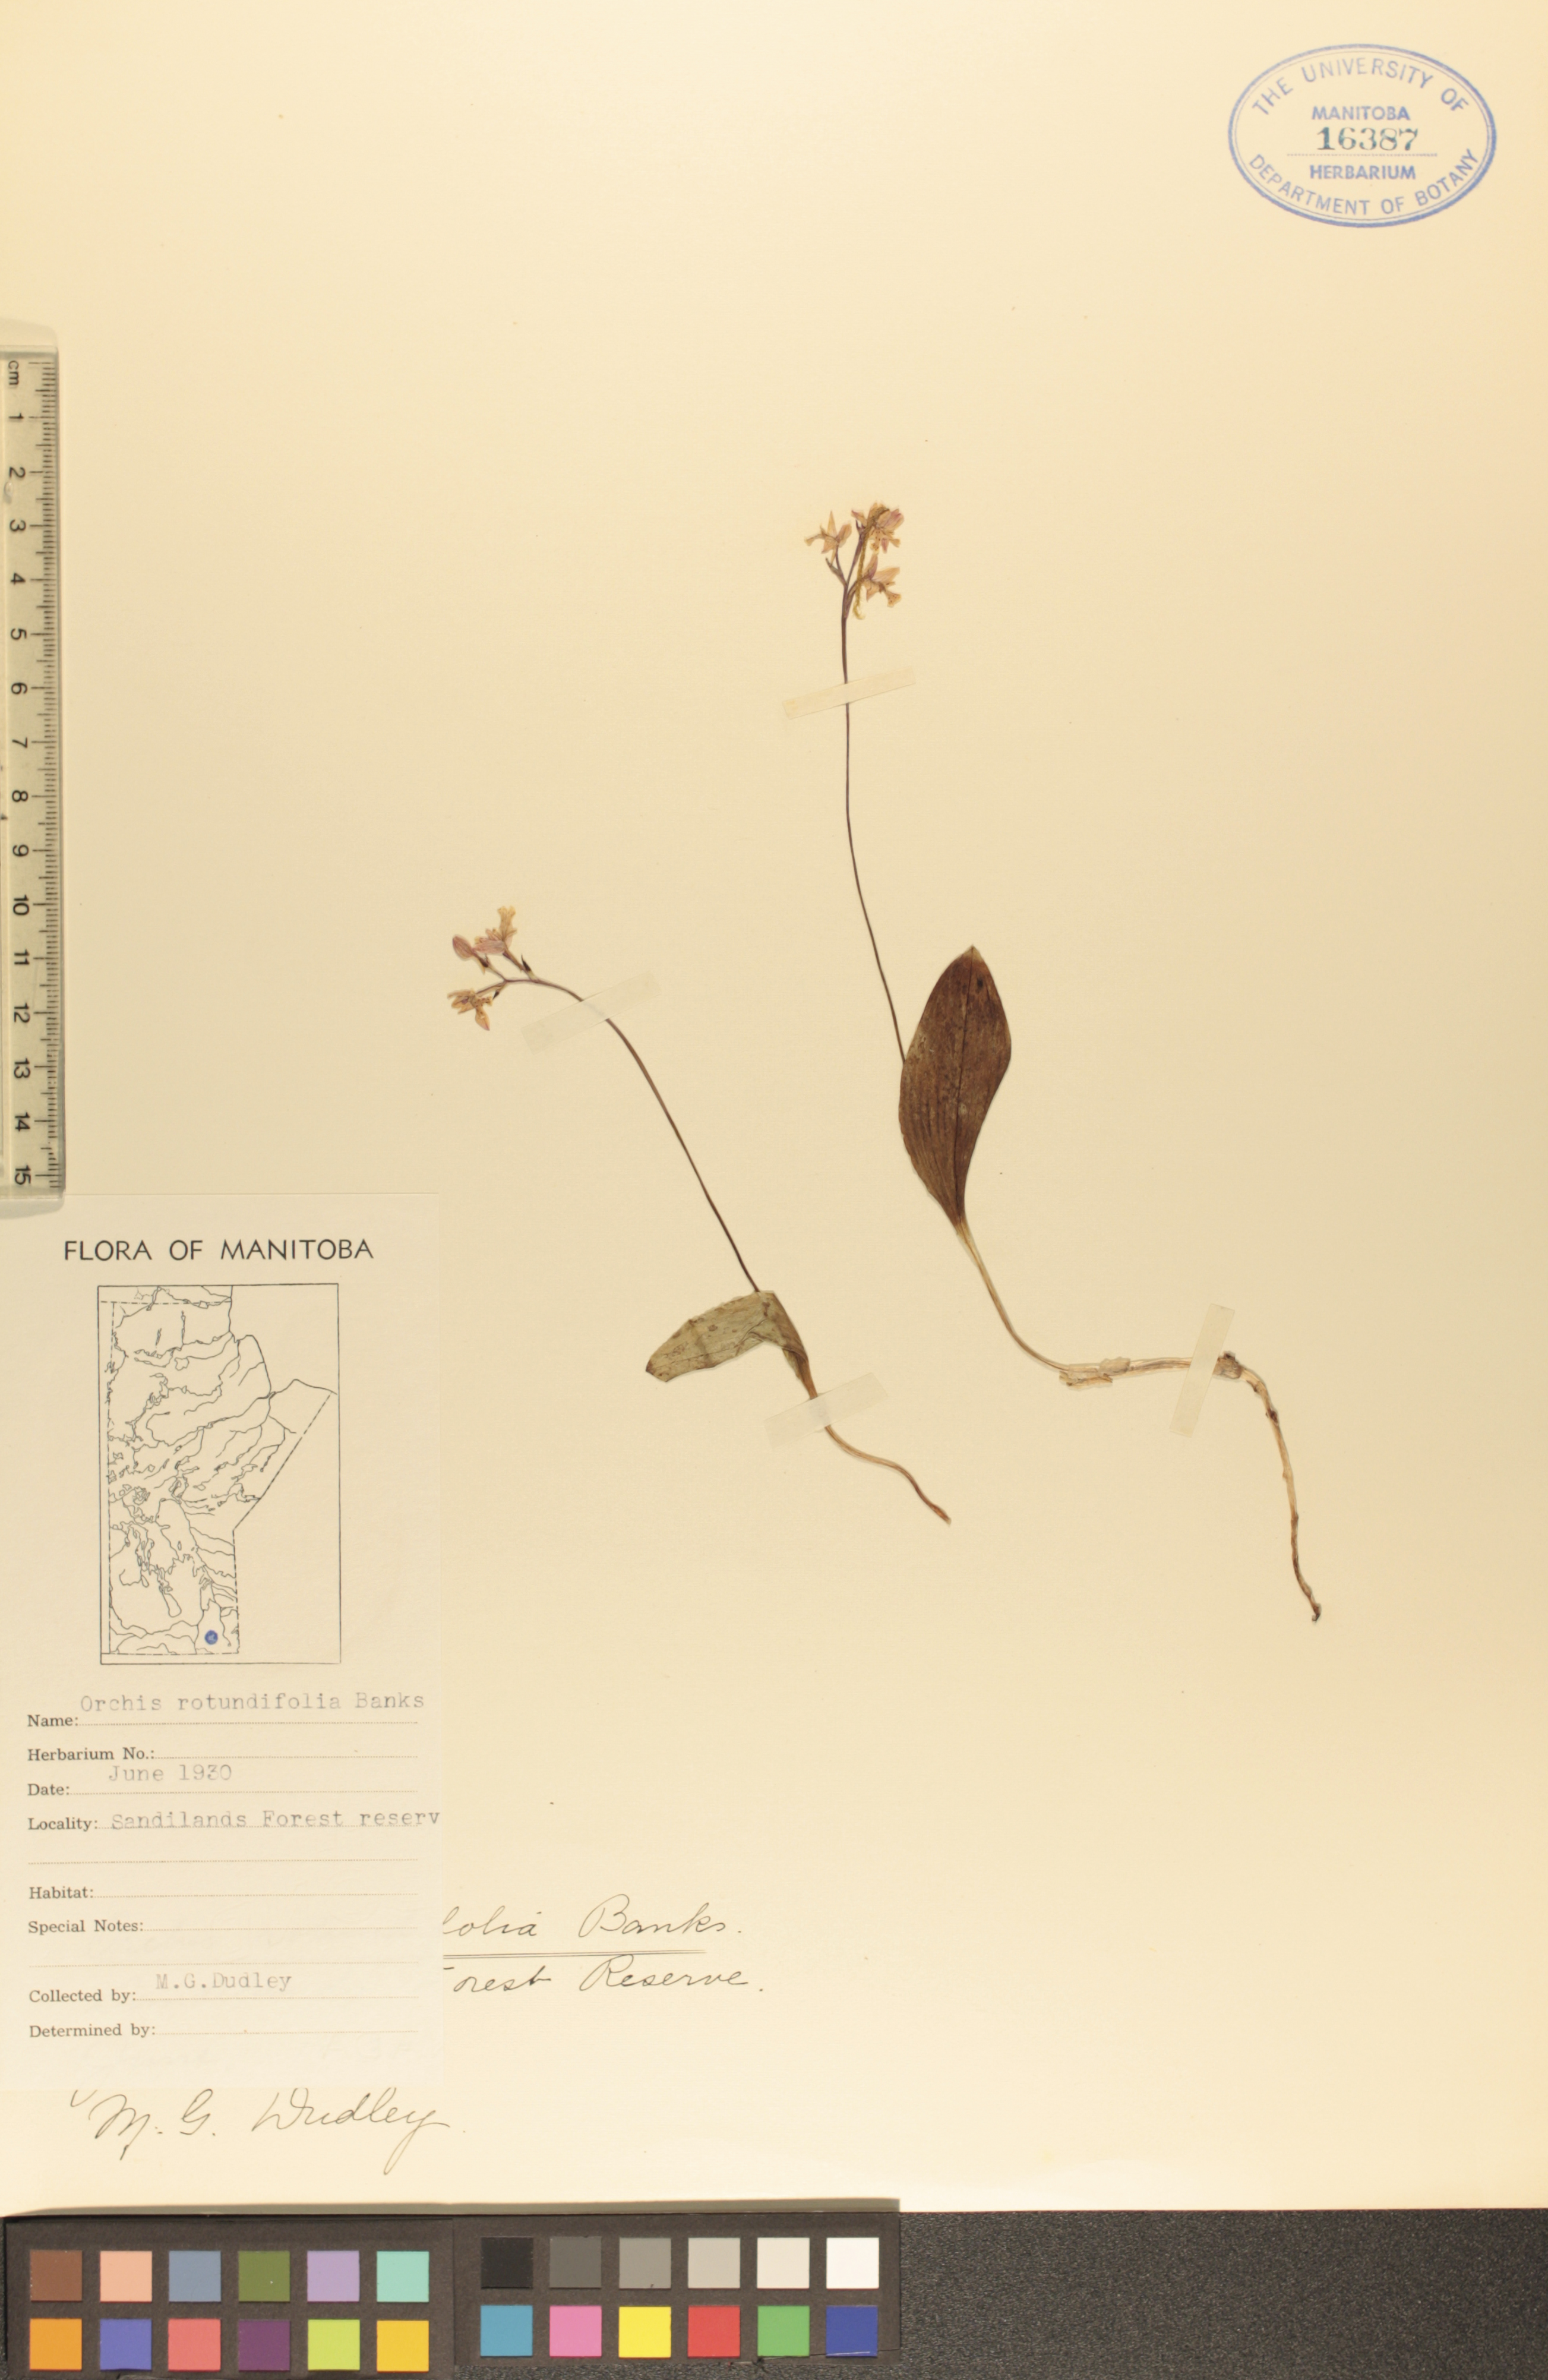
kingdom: Plantae
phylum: Tracheophyta
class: Liliopsida
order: Asparagales
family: Orchidaceae
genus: Galearis
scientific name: Galearis rotundifolia
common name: One-leaved orchis
